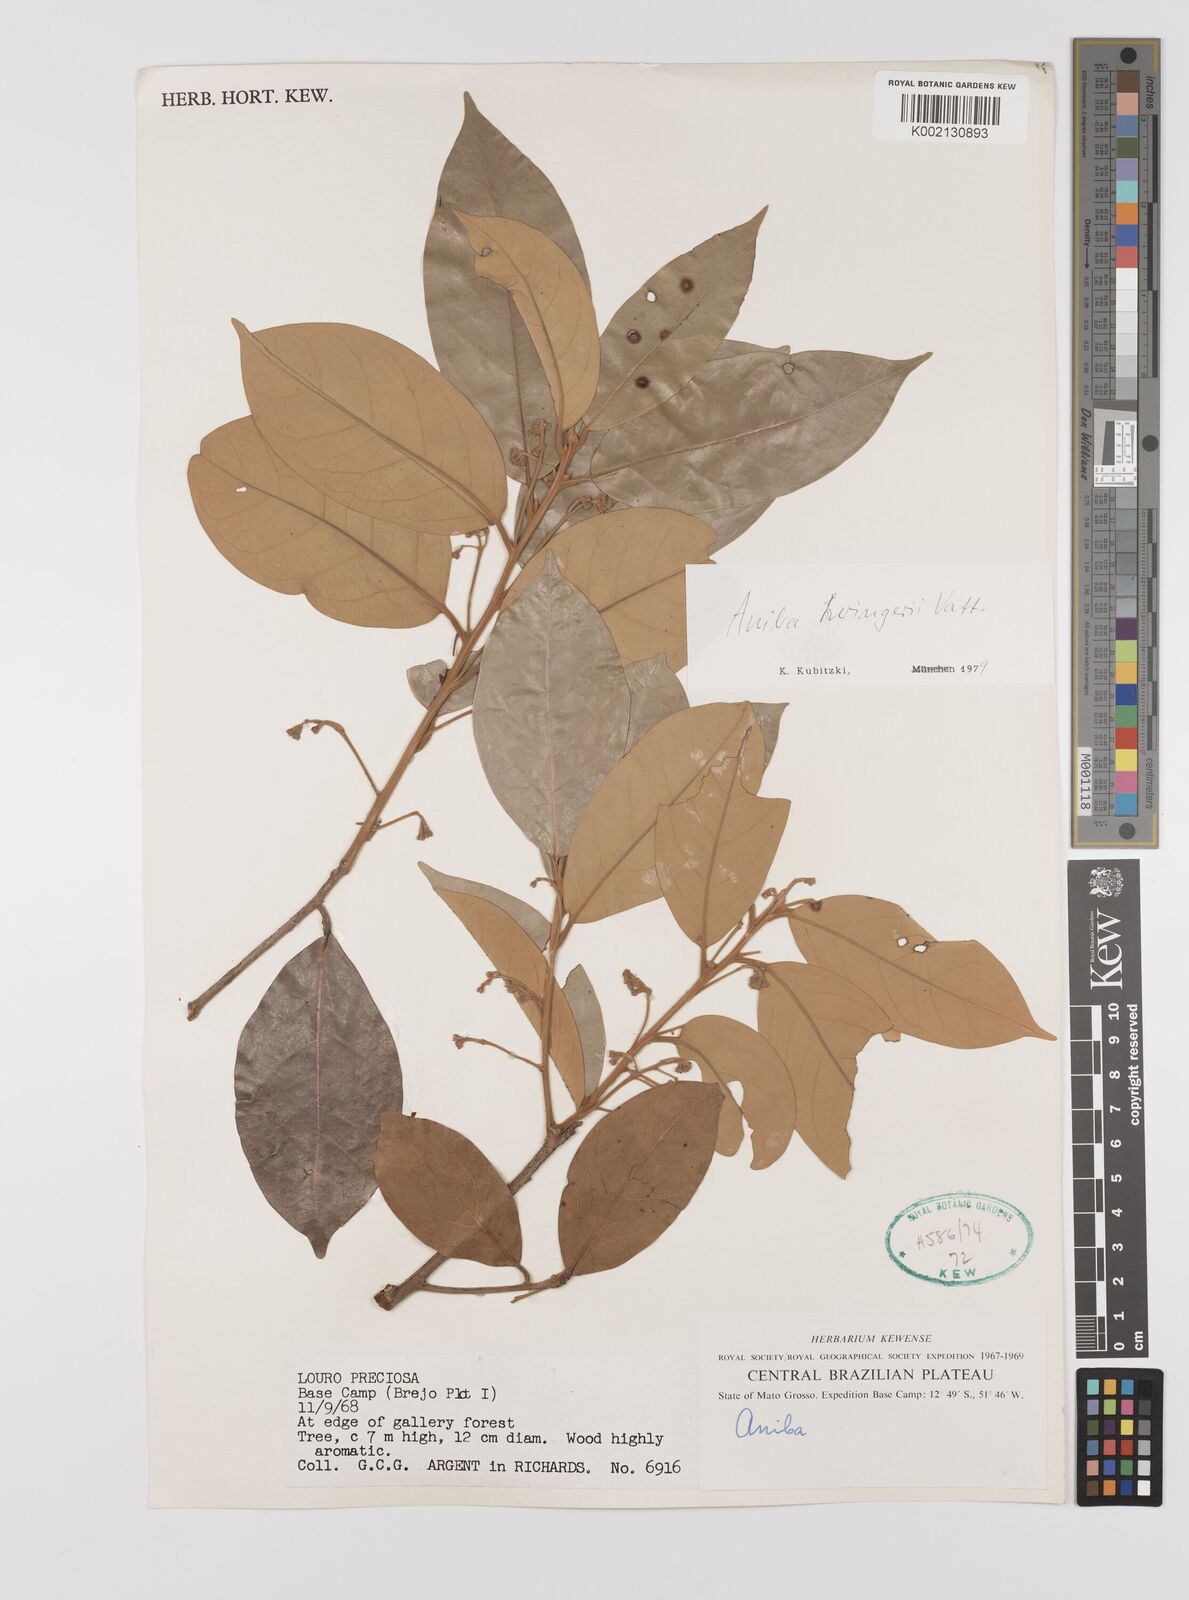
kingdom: Plantae
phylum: Tracheophyta
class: Magnoliopsida
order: Laurales
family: Lauraceae
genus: Aniba
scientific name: Aniba heringeri
